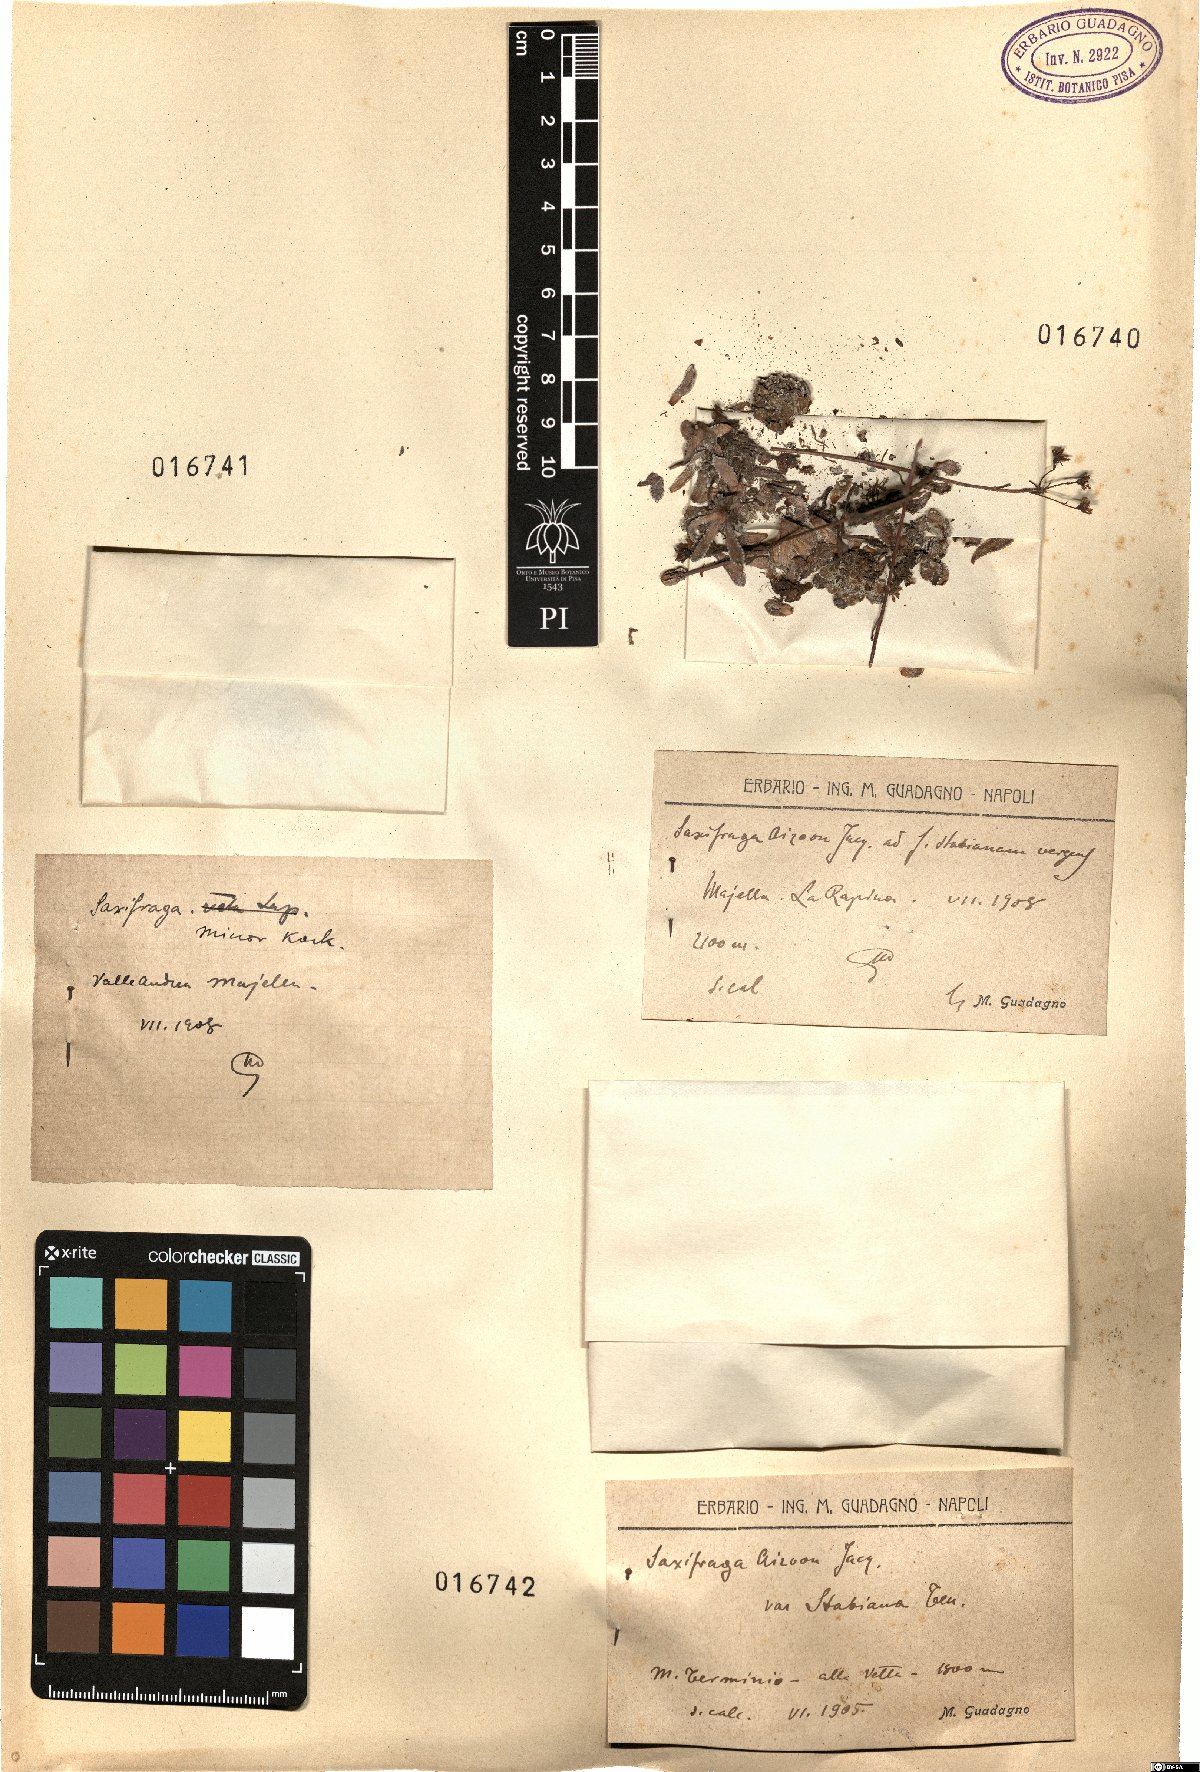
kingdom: Plantae
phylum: Tracheophyta
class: Magnoliopsida
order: Saxifragales
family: Saxifragaceae
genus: Saxifraga
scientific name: Saxifraga paniculata
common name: Livelong saxifrage
